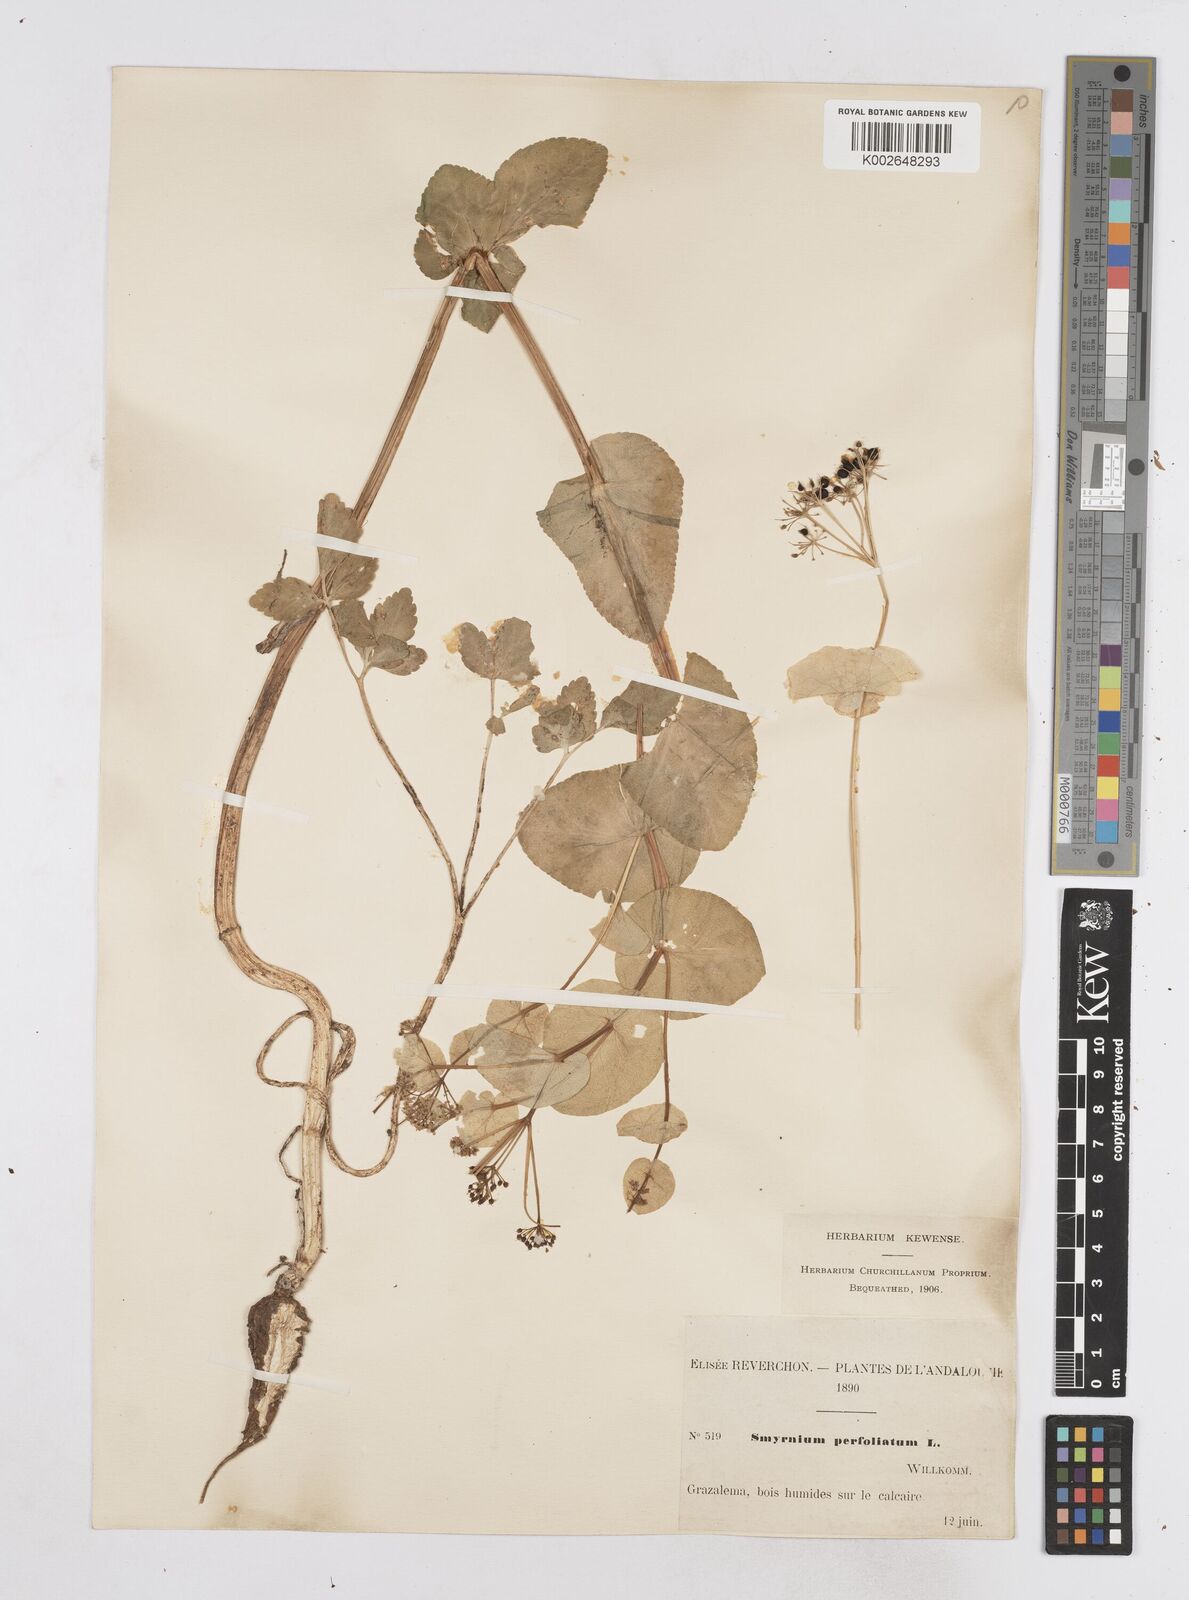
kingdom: Plantae
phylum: Tracheophyta
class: Magnoliopsida
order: Apiales
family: Apiaceae
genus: Smyrnium
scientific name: Smyrnium perfoliatum
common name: Perfoliate alexanders
